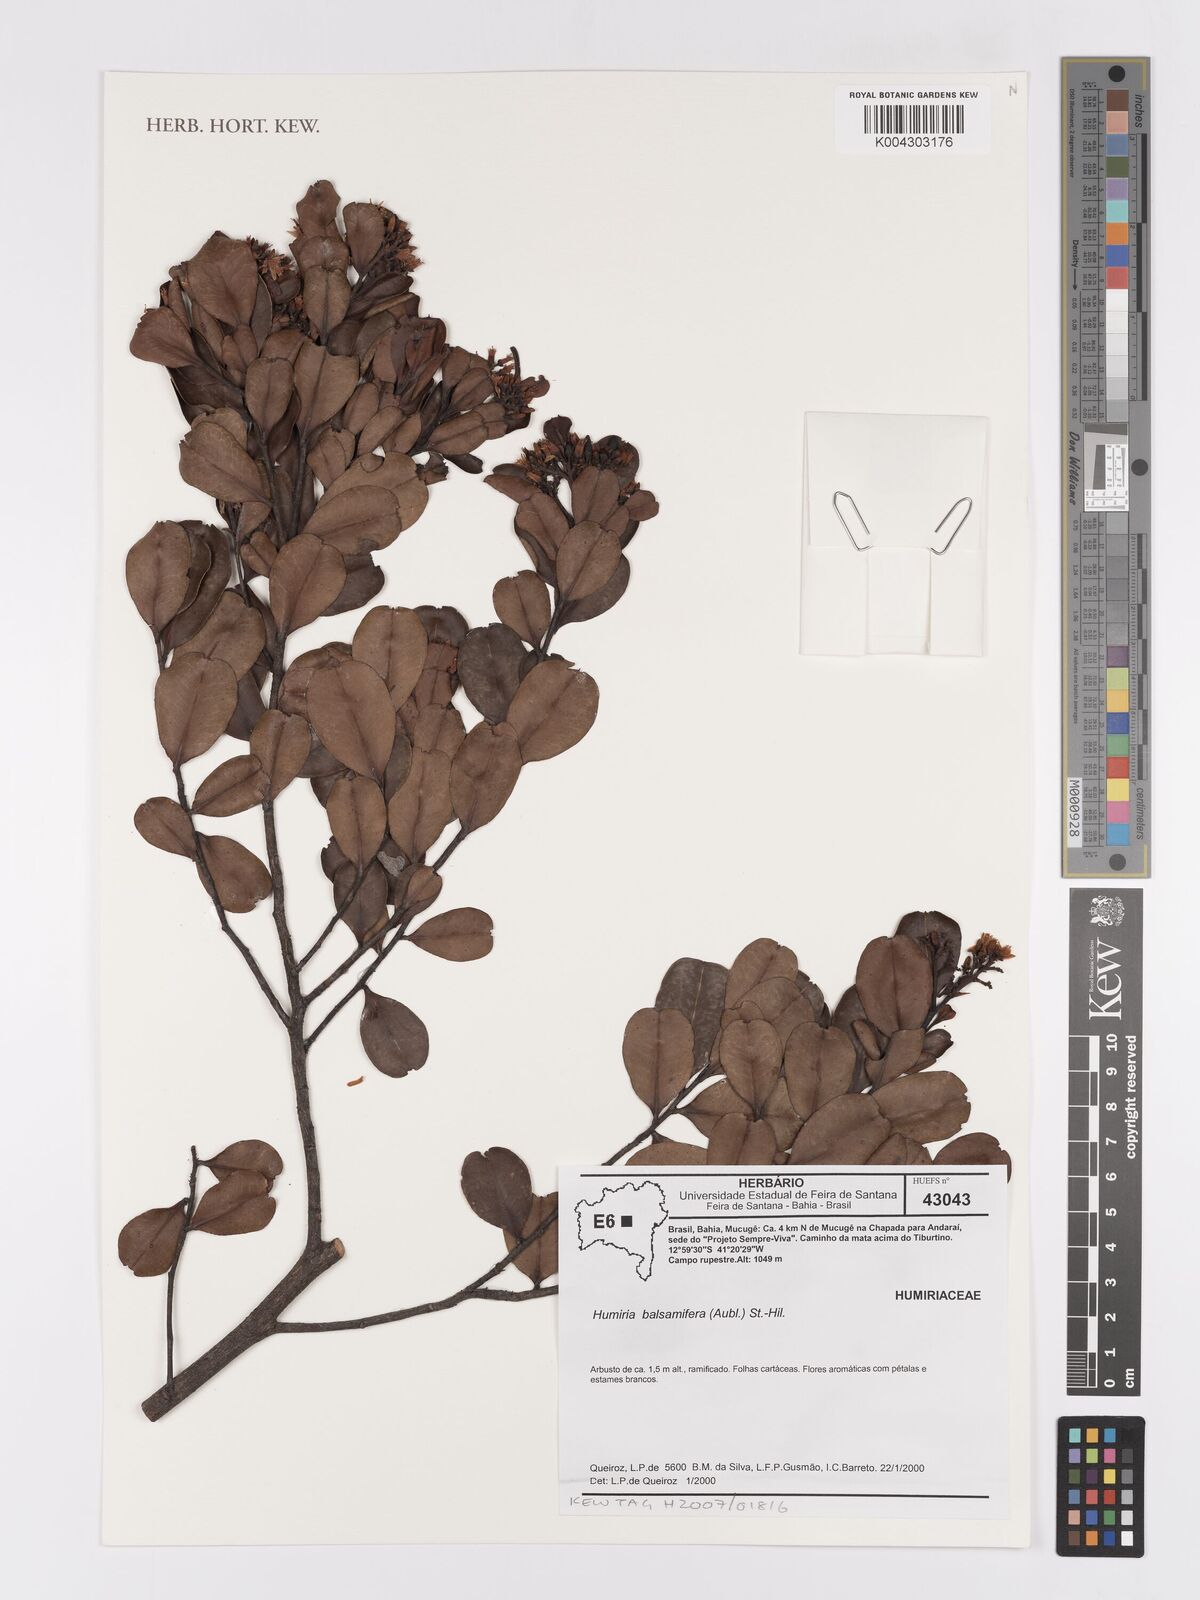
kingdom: Plantae
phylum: Tracheophyta
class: Magnoliopsida
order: Malpighiales
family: Humiriaceae
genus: Humiria
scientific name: Humiria parvifolia
